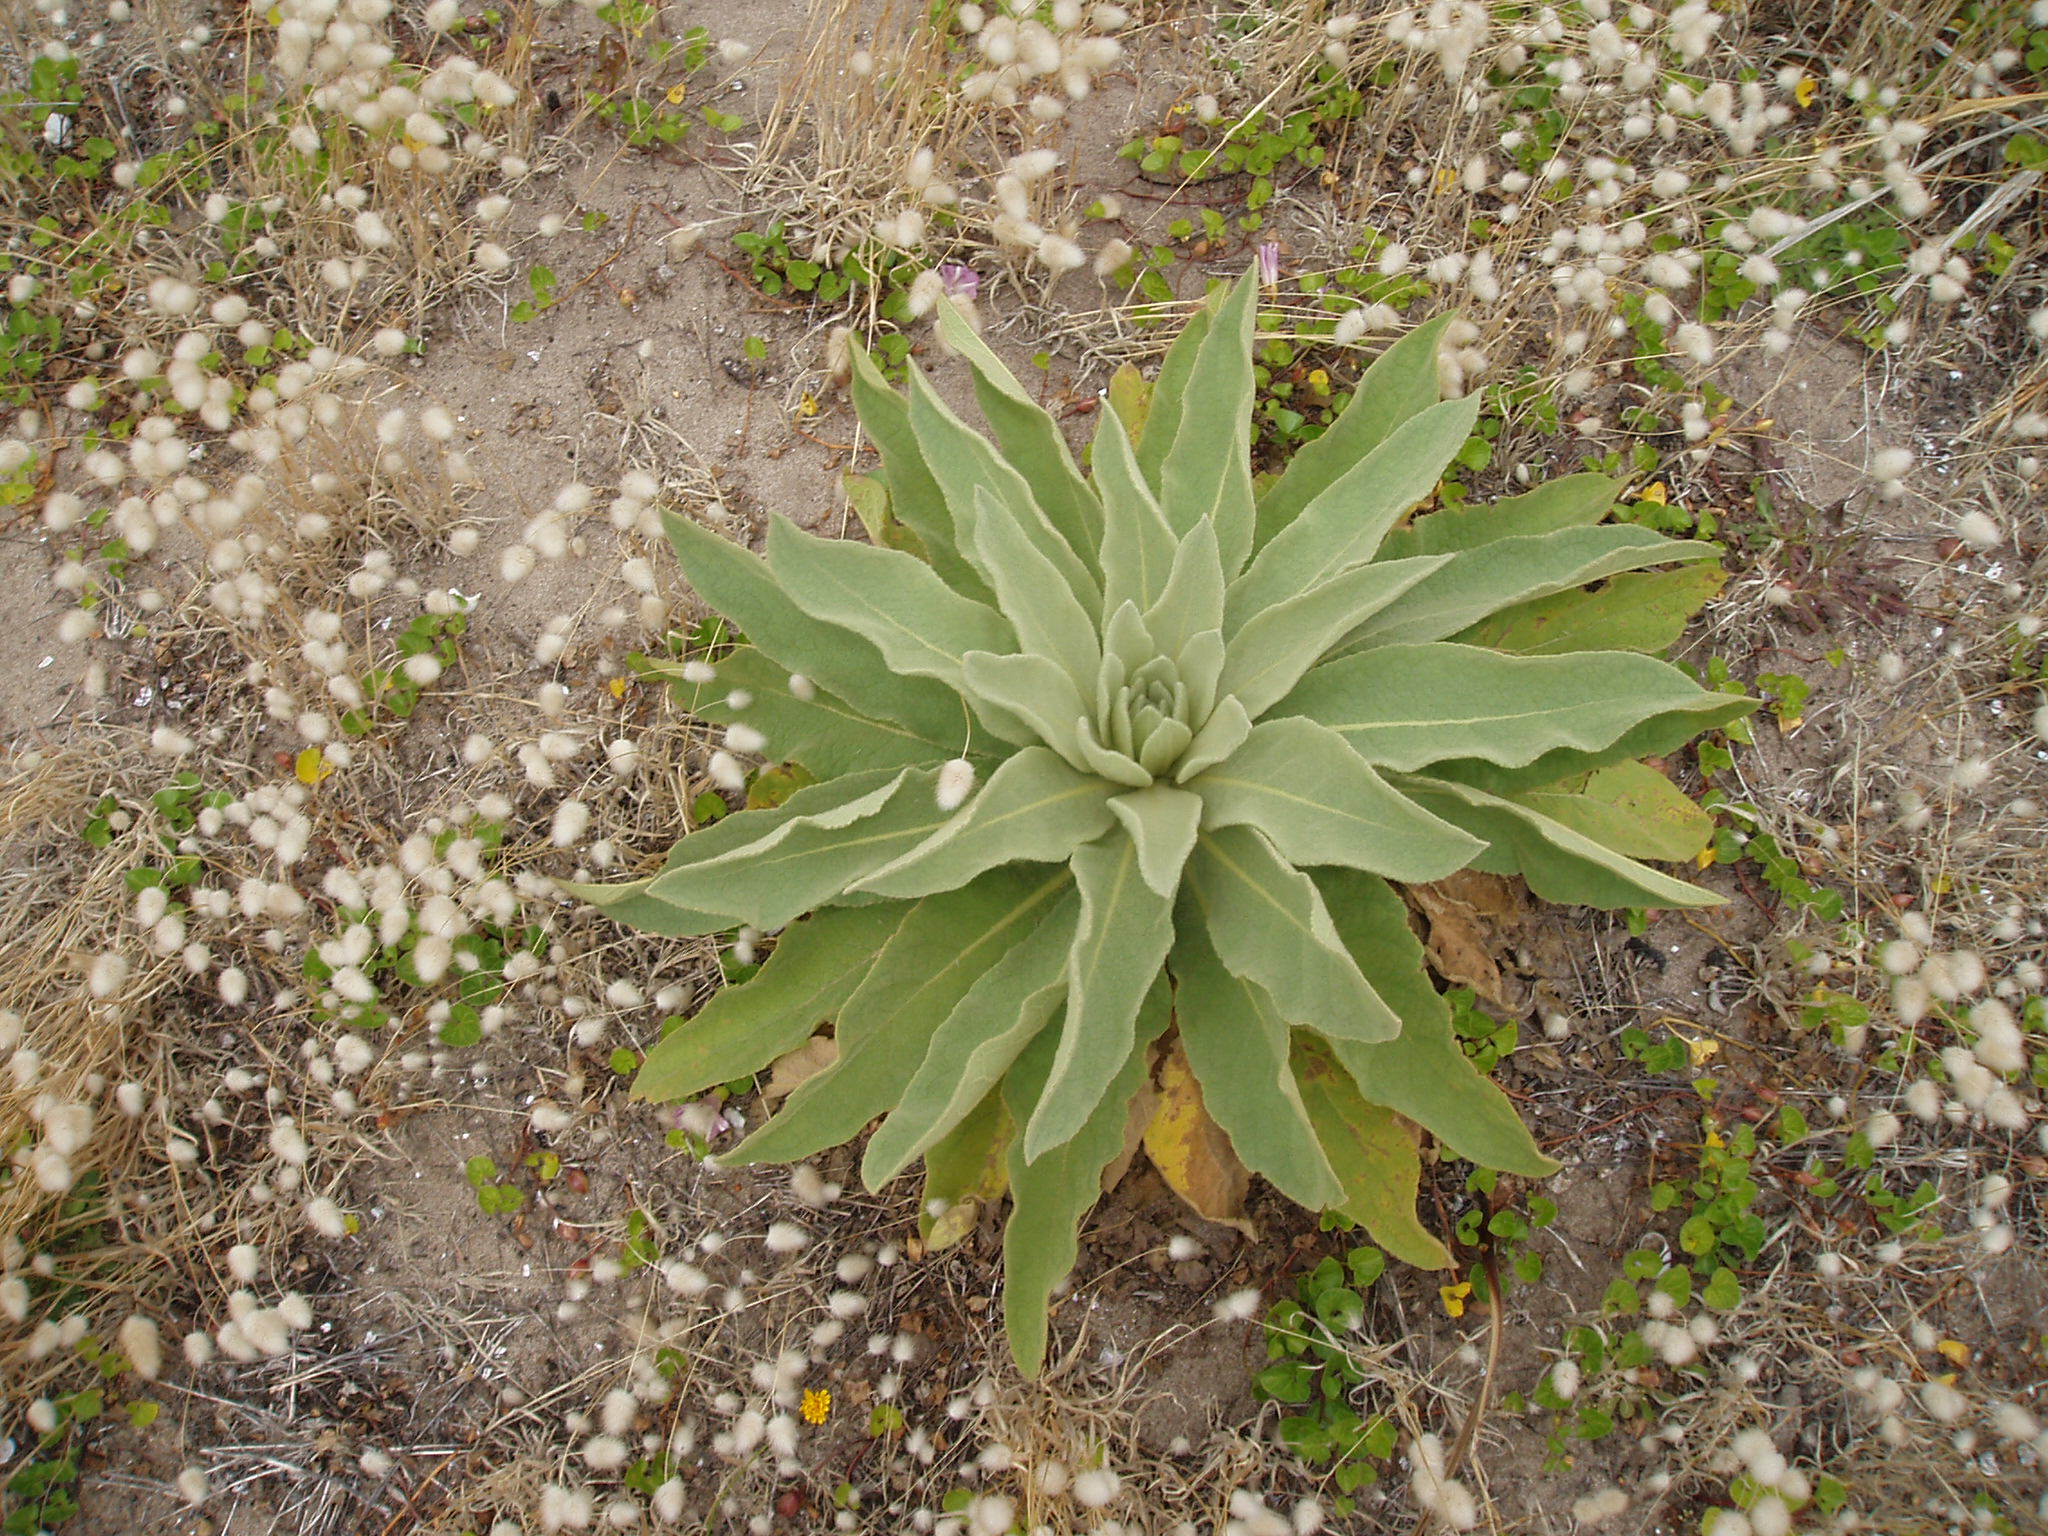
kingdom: Plantae
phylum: Tracheophyta
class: Magnoliopsida
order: Lamiales
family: Scrophulariaceae
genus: Verbascum
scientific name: Verbascum thapsus
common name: Common mullein
